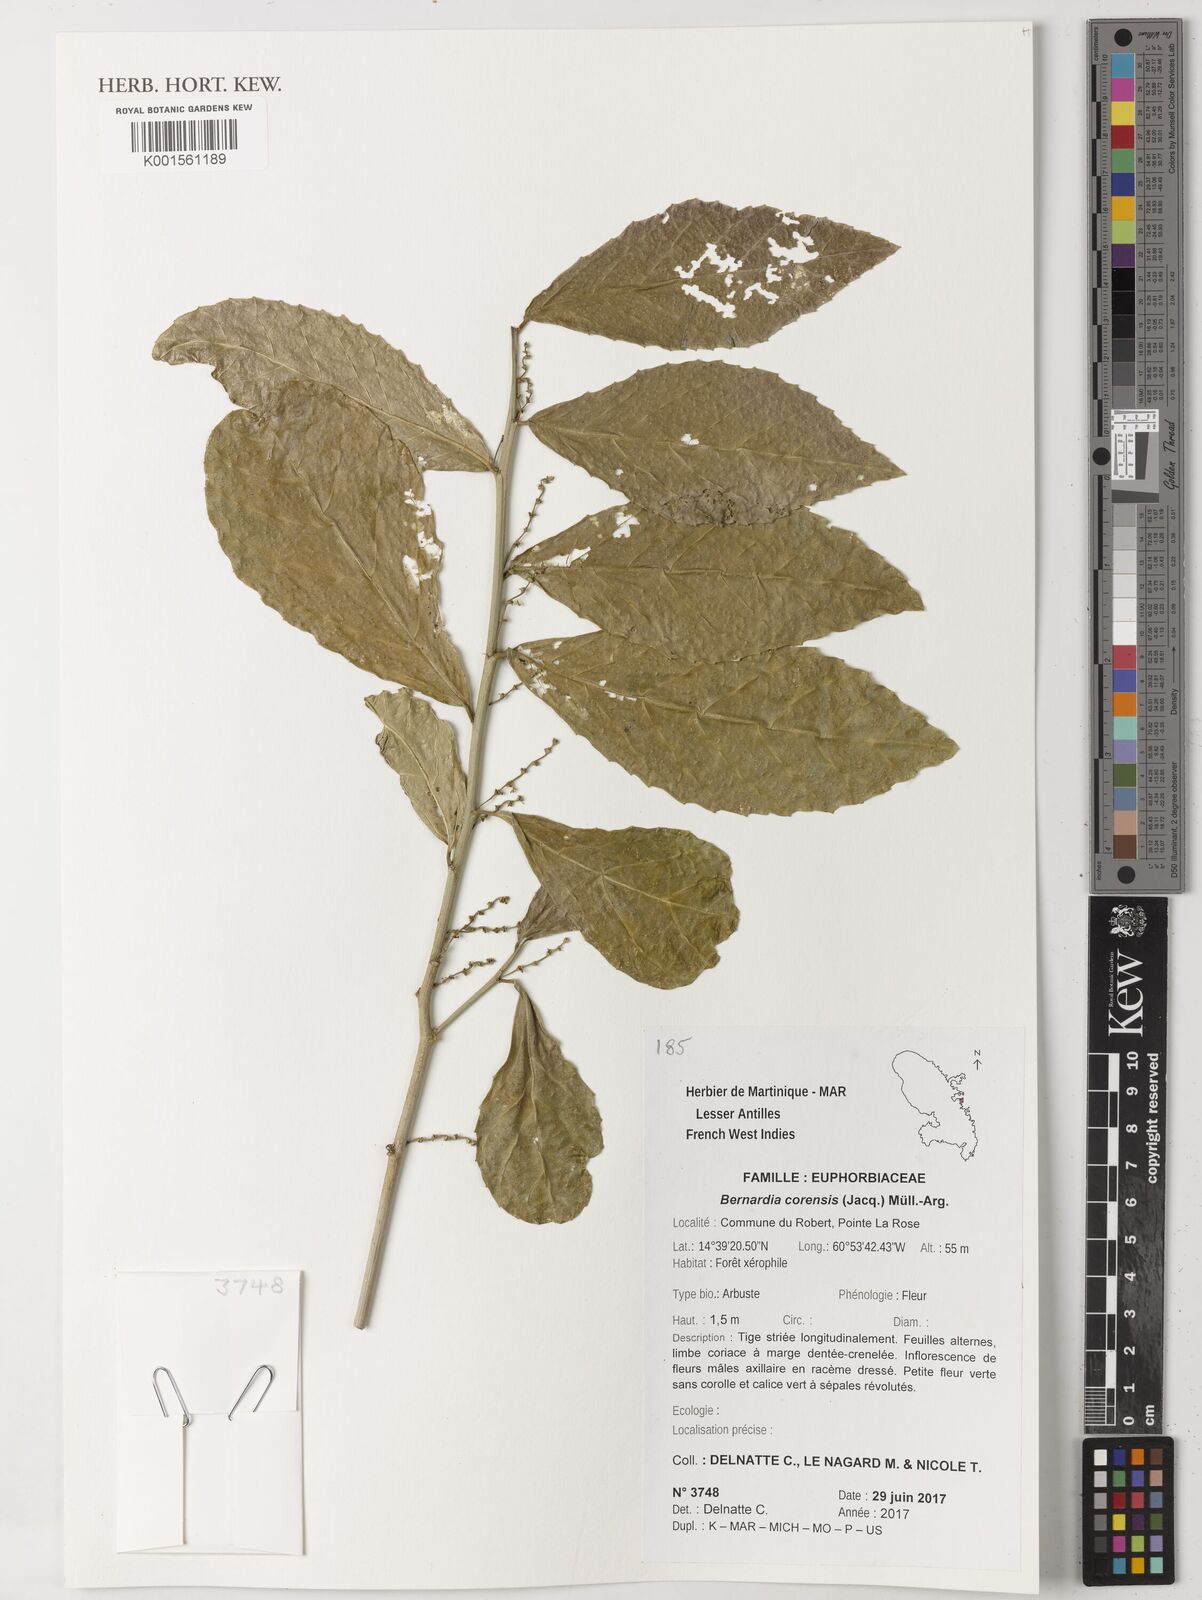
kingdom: Plantae
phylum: Tracheophyta
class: Magnoliopsida
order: Malpighiales
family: Euphorbiaceae
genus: Bernardia
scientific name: Bernardia corensis
